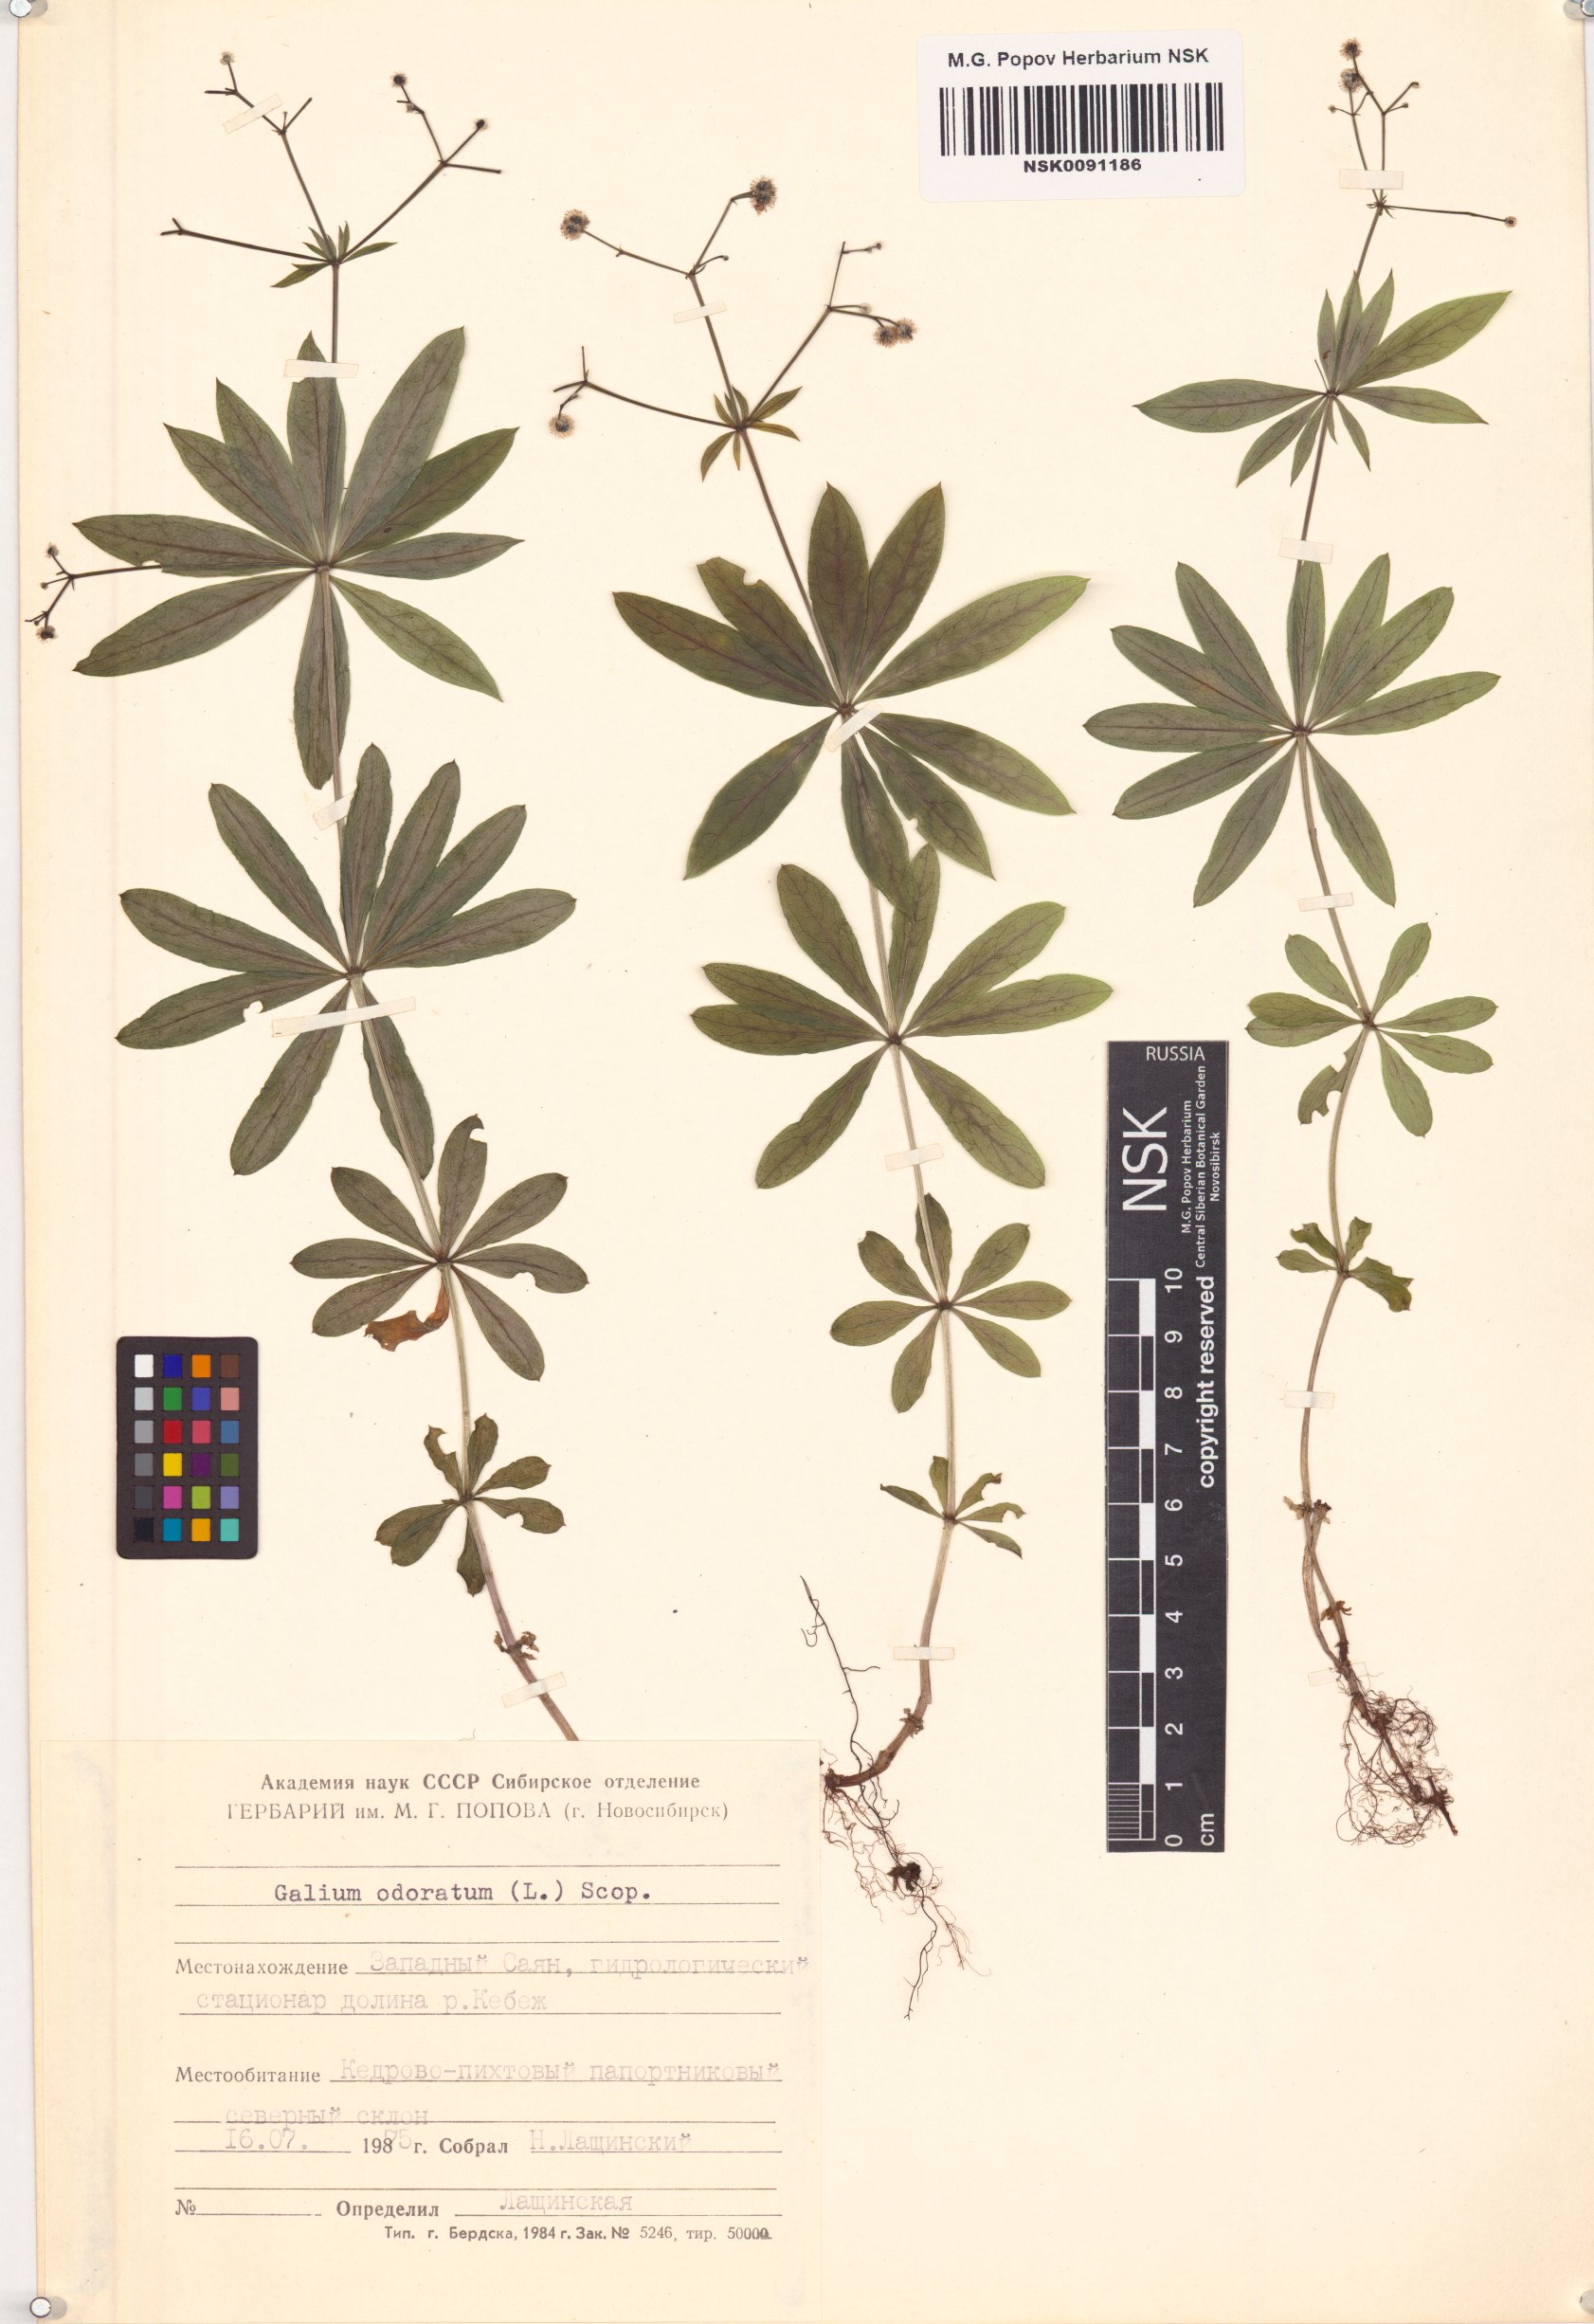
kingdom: Plantae
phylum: Tracheophyta
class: Magnoliopsida
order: Gentianales
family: Rubiaceae
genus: Galium
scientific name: Galium odoratum
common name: Sweet woodruff
